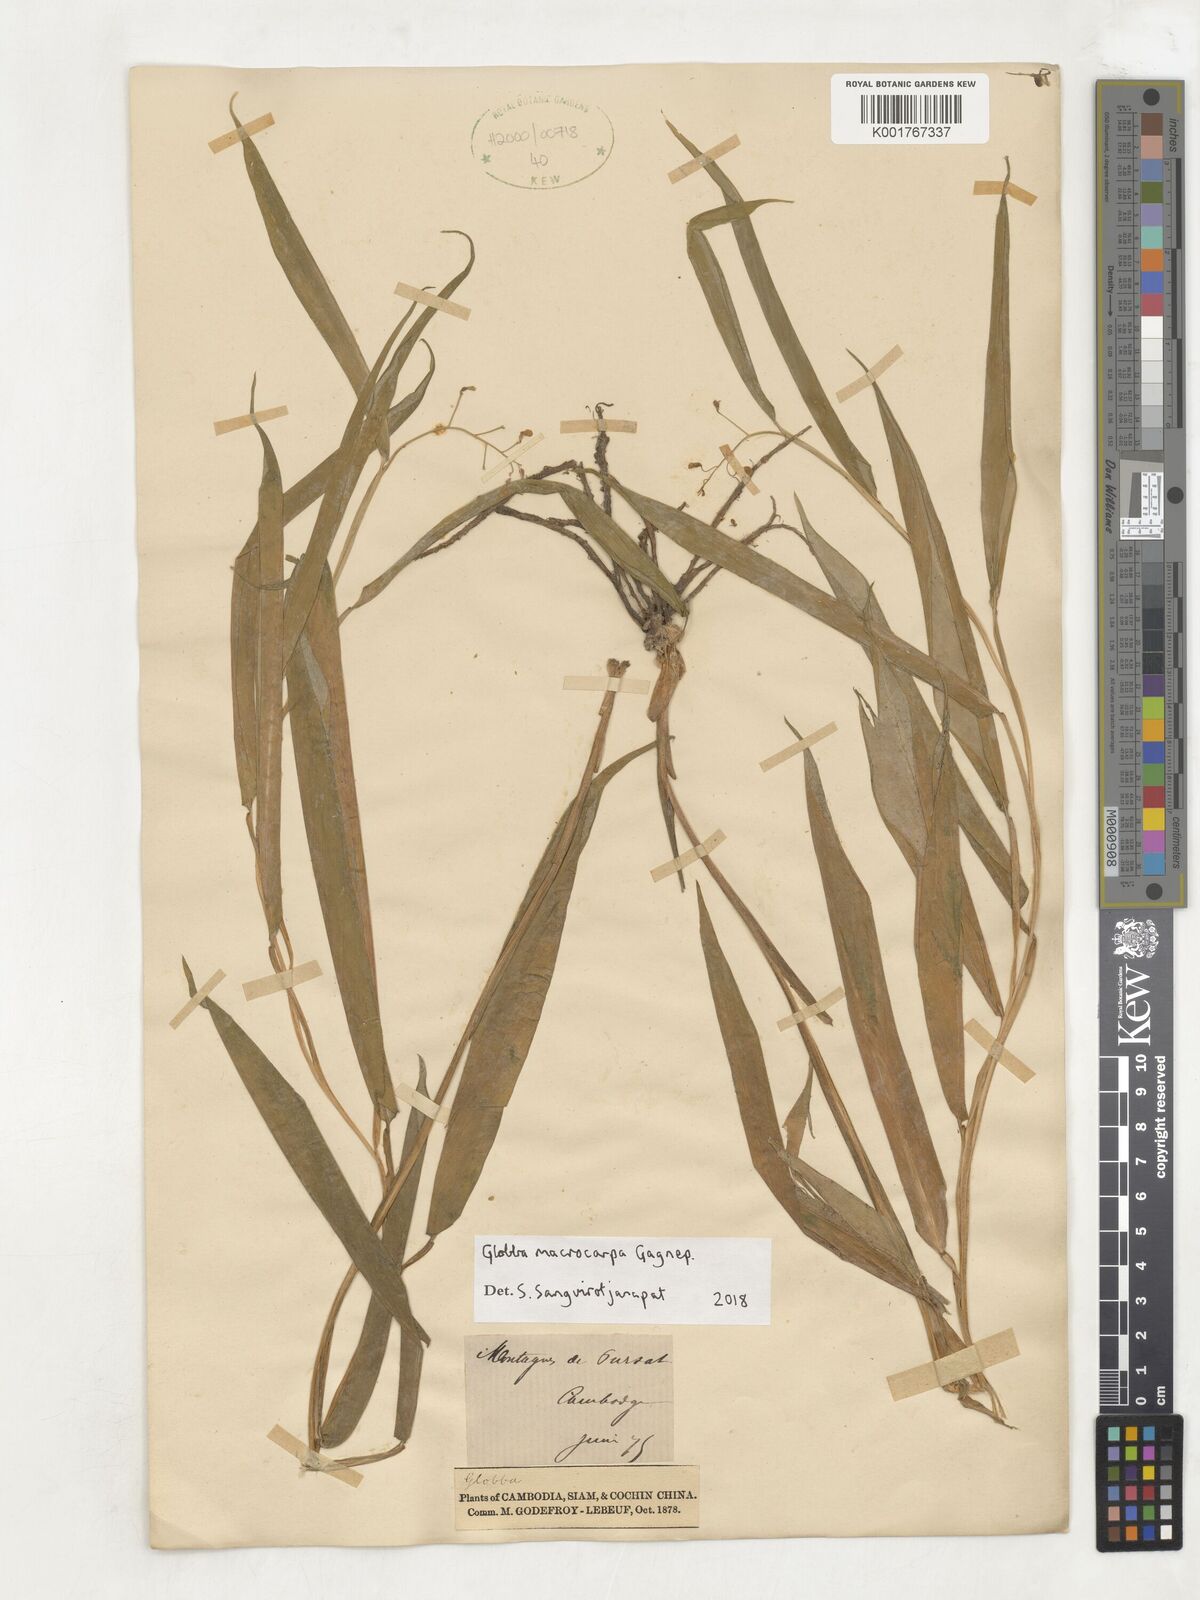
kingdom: Plantae
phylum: Tracheophyta
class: Liliopsida
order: Zingiberales
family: Zingiberaceae
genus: Globba
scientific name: Globba macrocarpa
